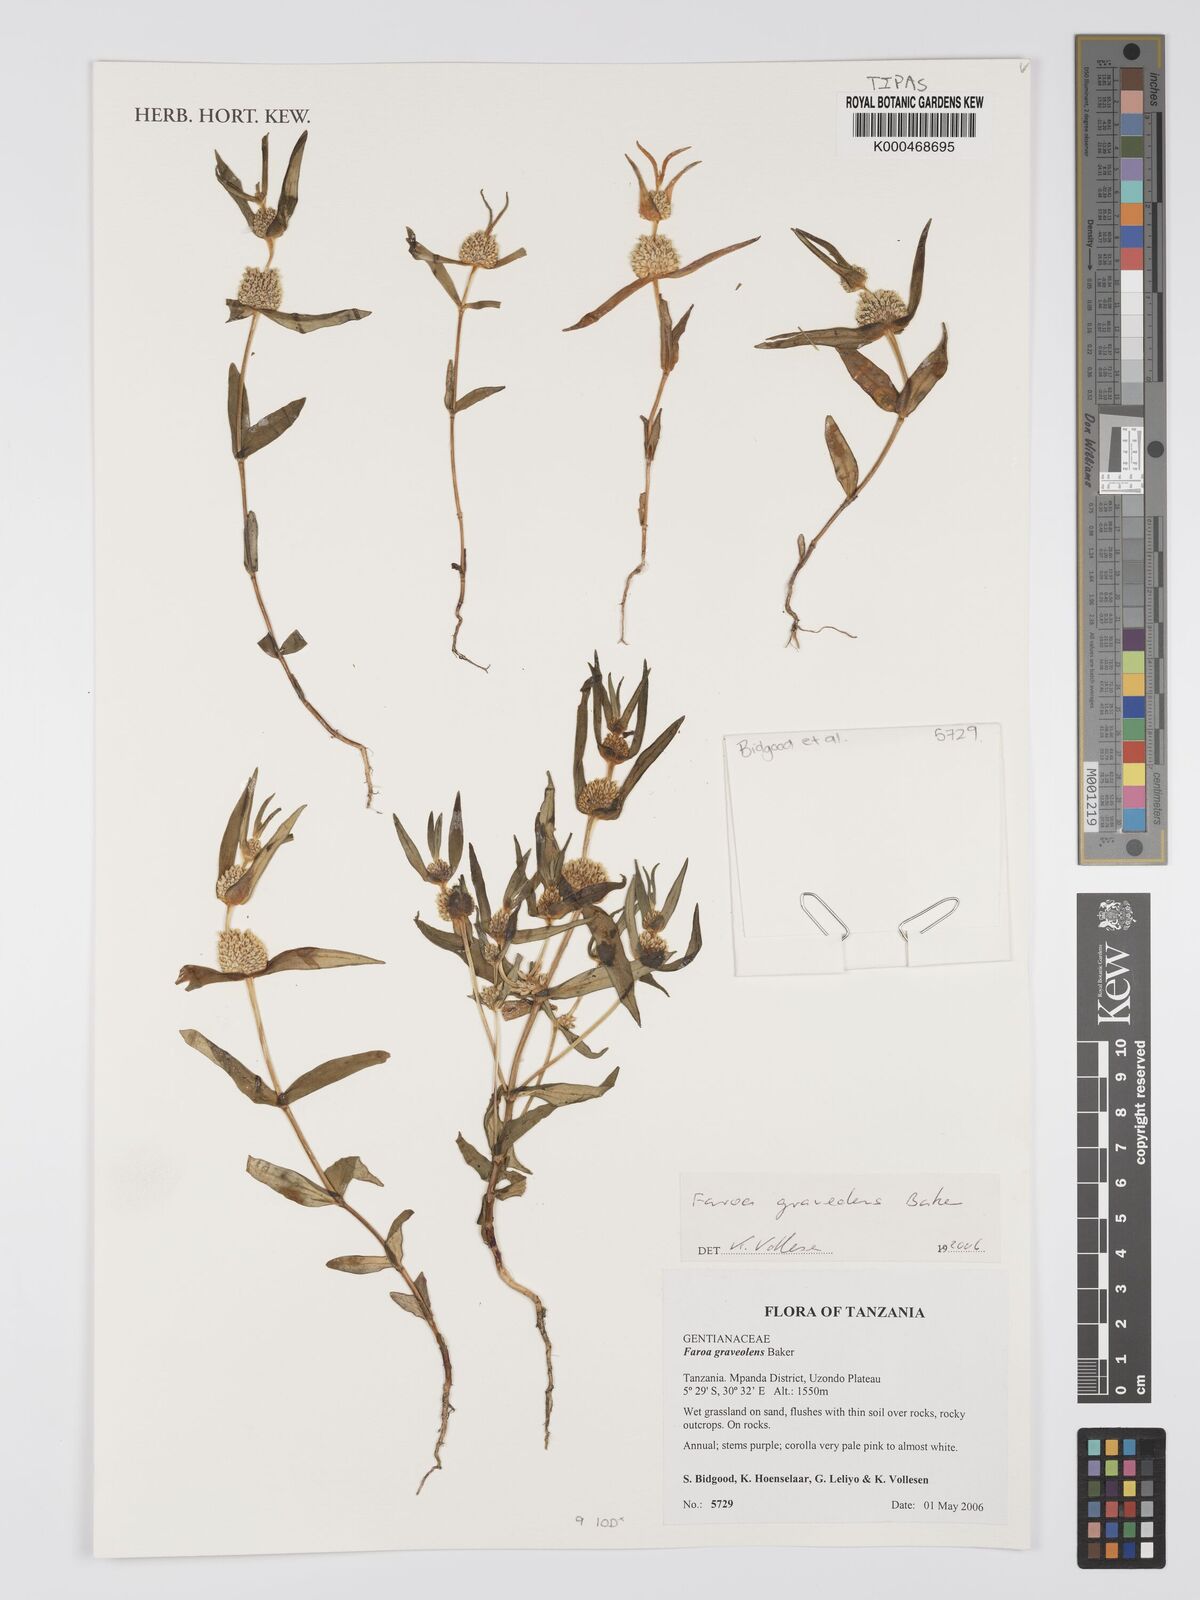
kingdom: Plantae
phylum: Tracheophyta
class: Magnoliopsida
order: Gentianales
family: Gentianaceae
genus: Faroa
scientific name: Faroa graveolens
